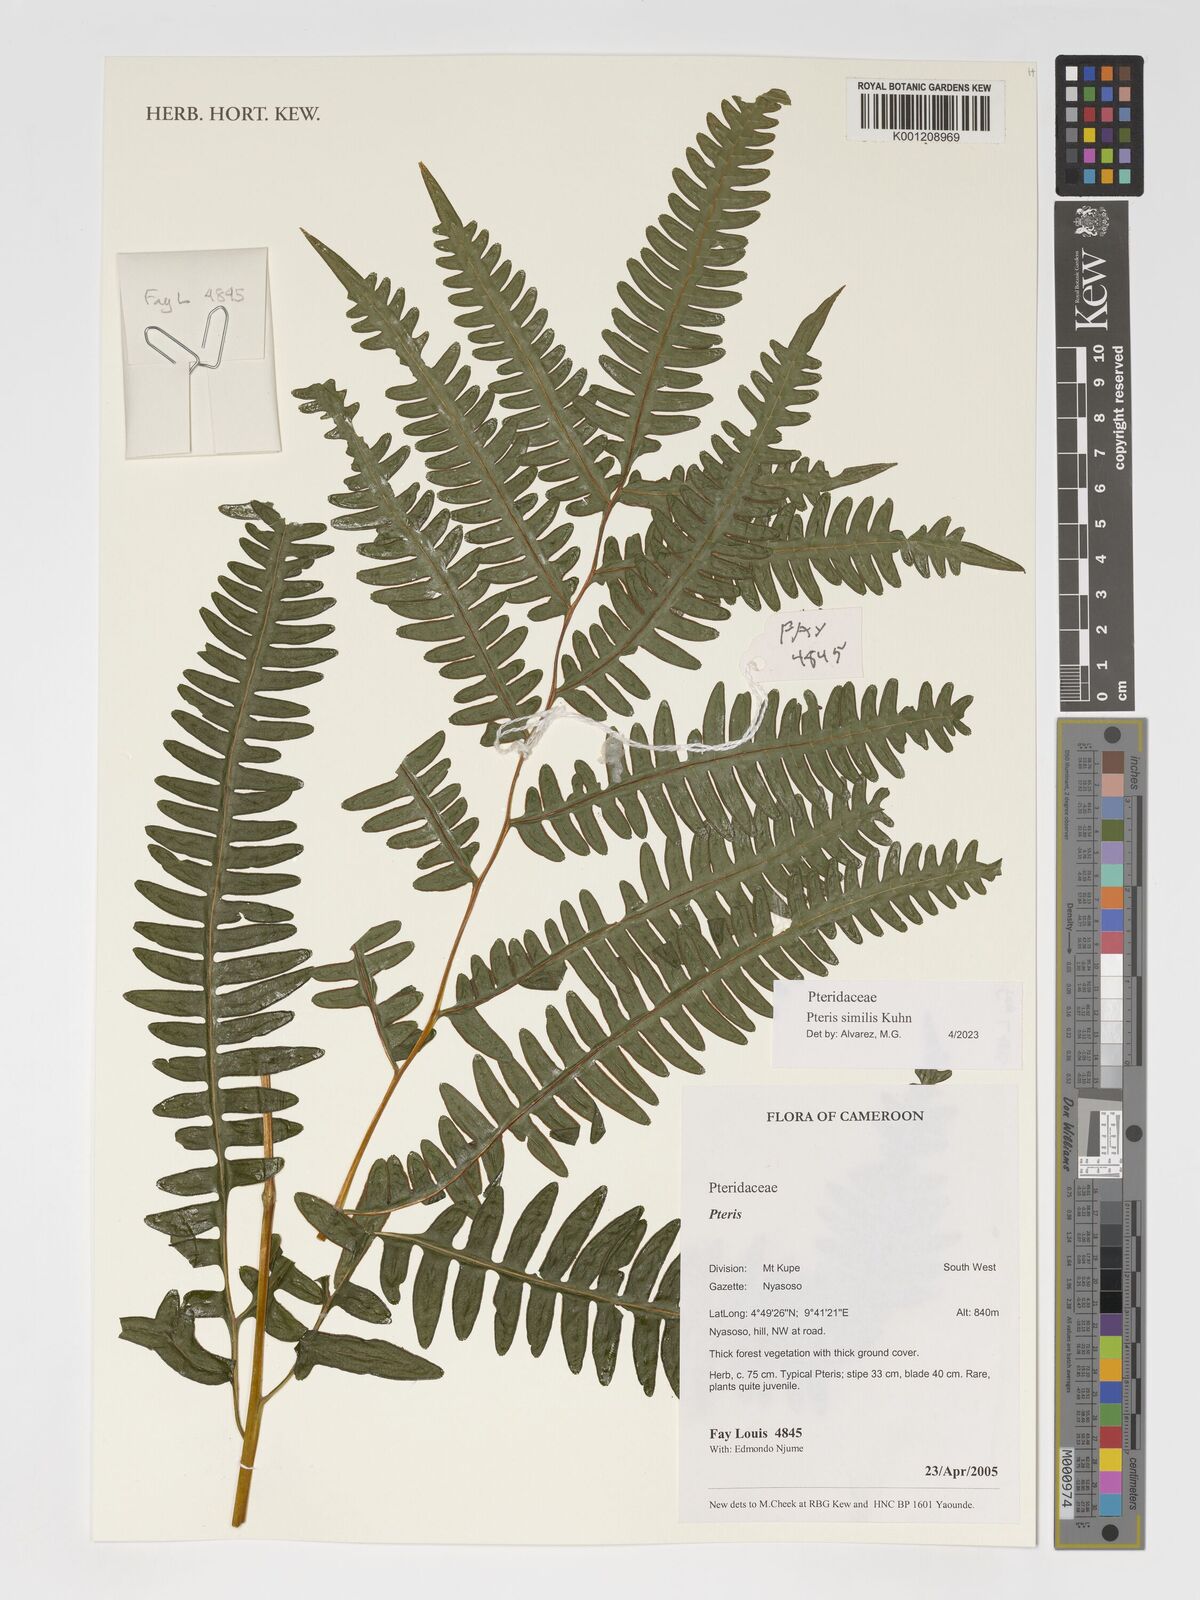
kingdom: Plantae
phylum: Tracheophyta
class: Polypodiopsida
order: Polypodiales
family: Pteridaceae
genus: Pteris
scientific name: Pteris similis
